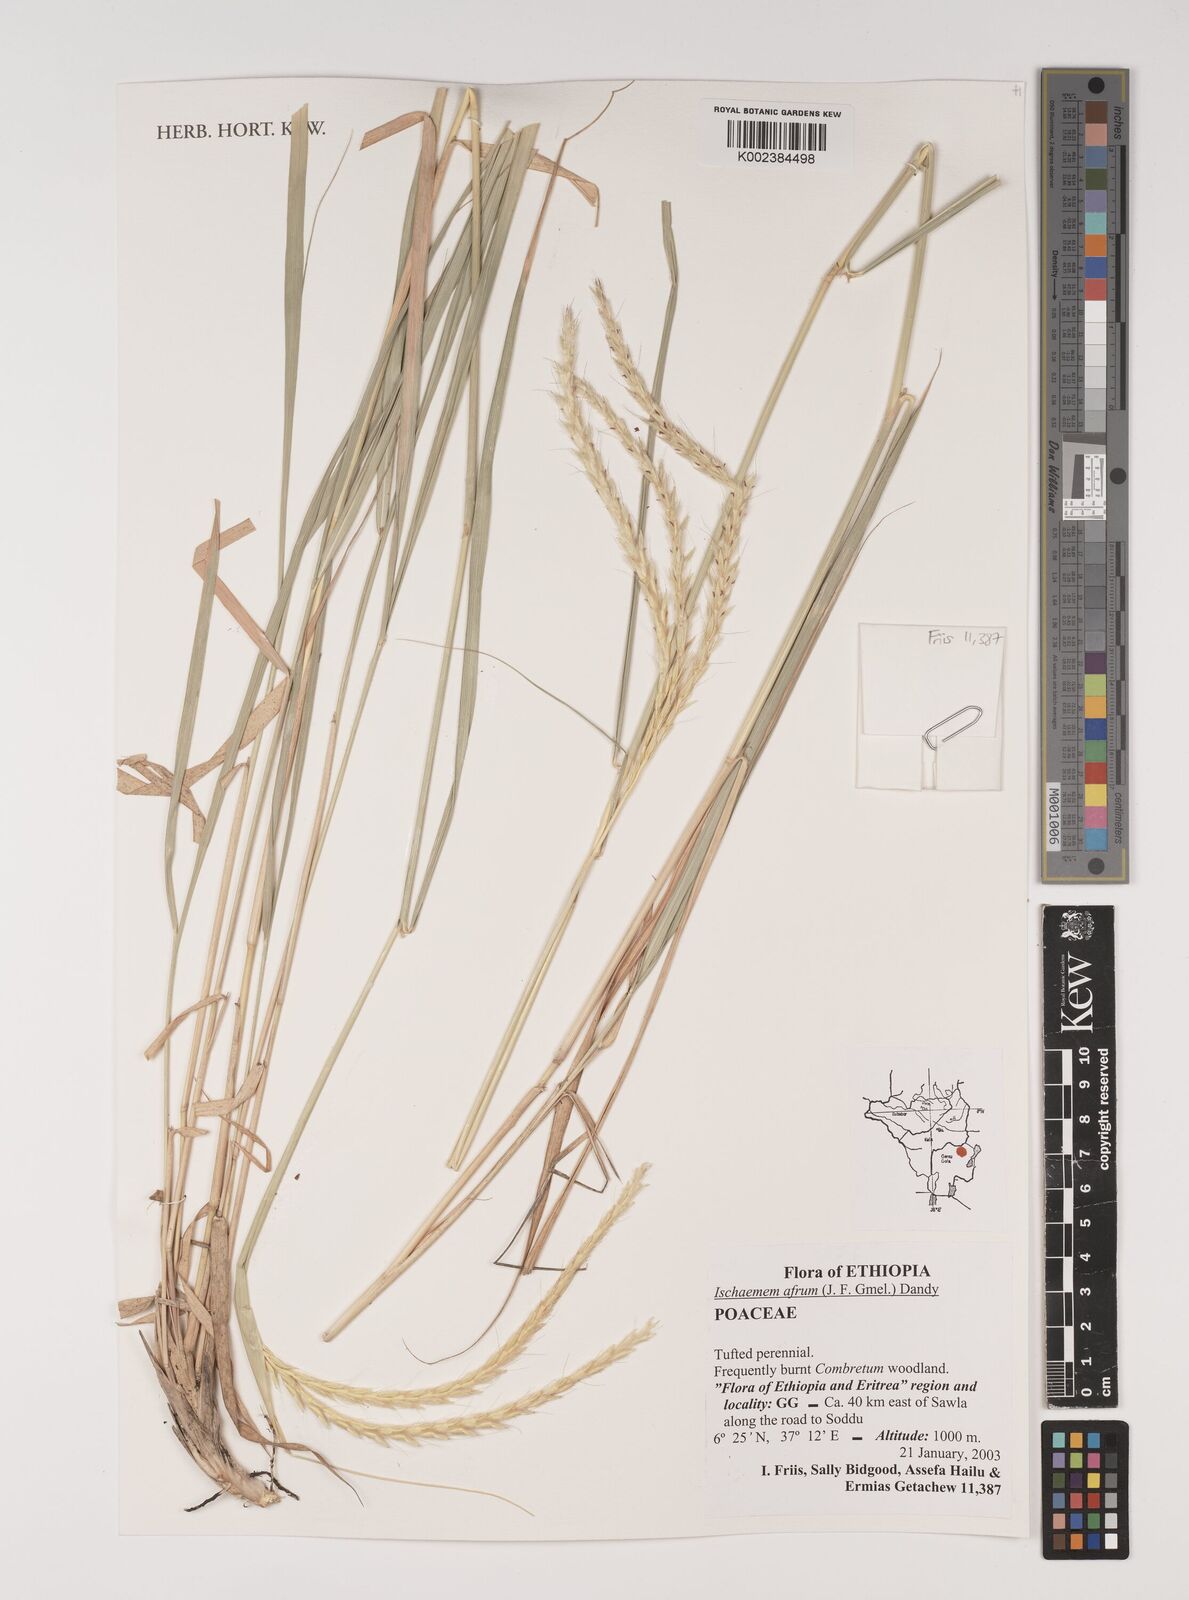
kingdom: Plantae
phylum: Tracheophyta
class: Liliopsida
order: Poales
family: Poaceae
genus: Ischaemum
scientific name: Ischaemum afrum
